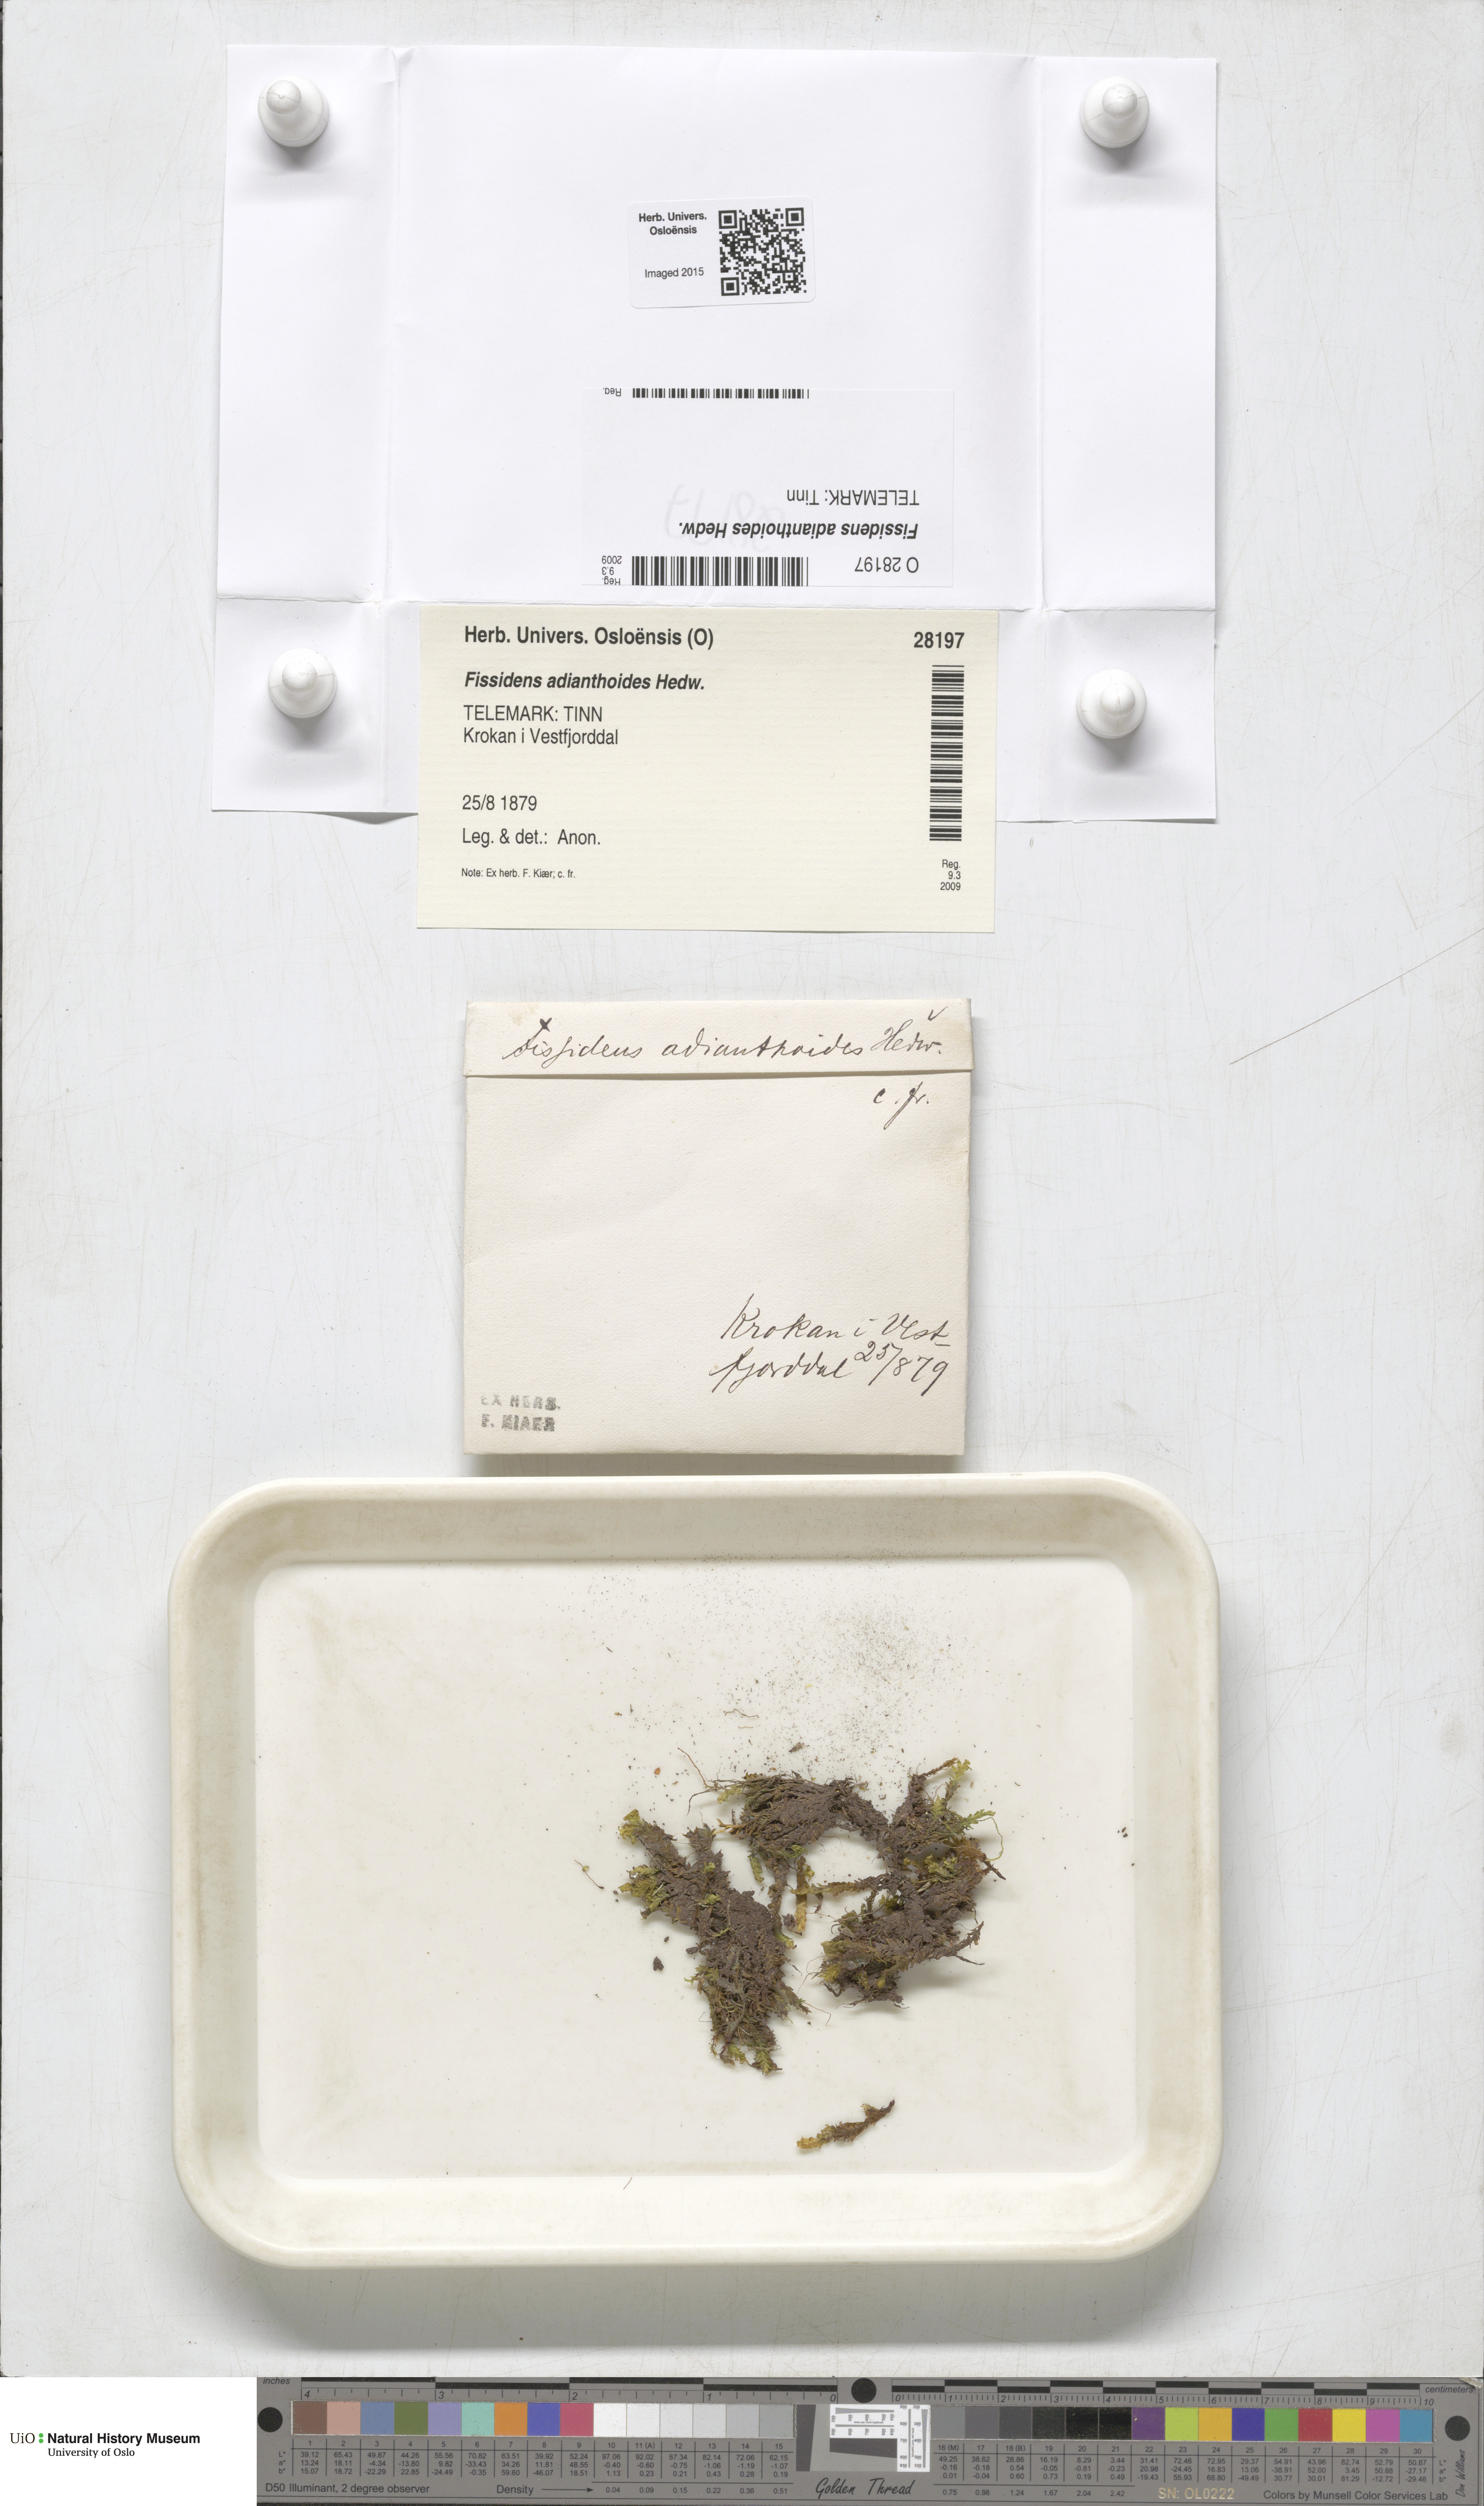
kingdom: Plantae
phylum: Bryophyta
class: Bryopsida
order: Dicranales
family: Fissidentaceae
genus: Fissidens
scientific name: Fissidens adianthoides
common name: Maidenhair pocket moss
